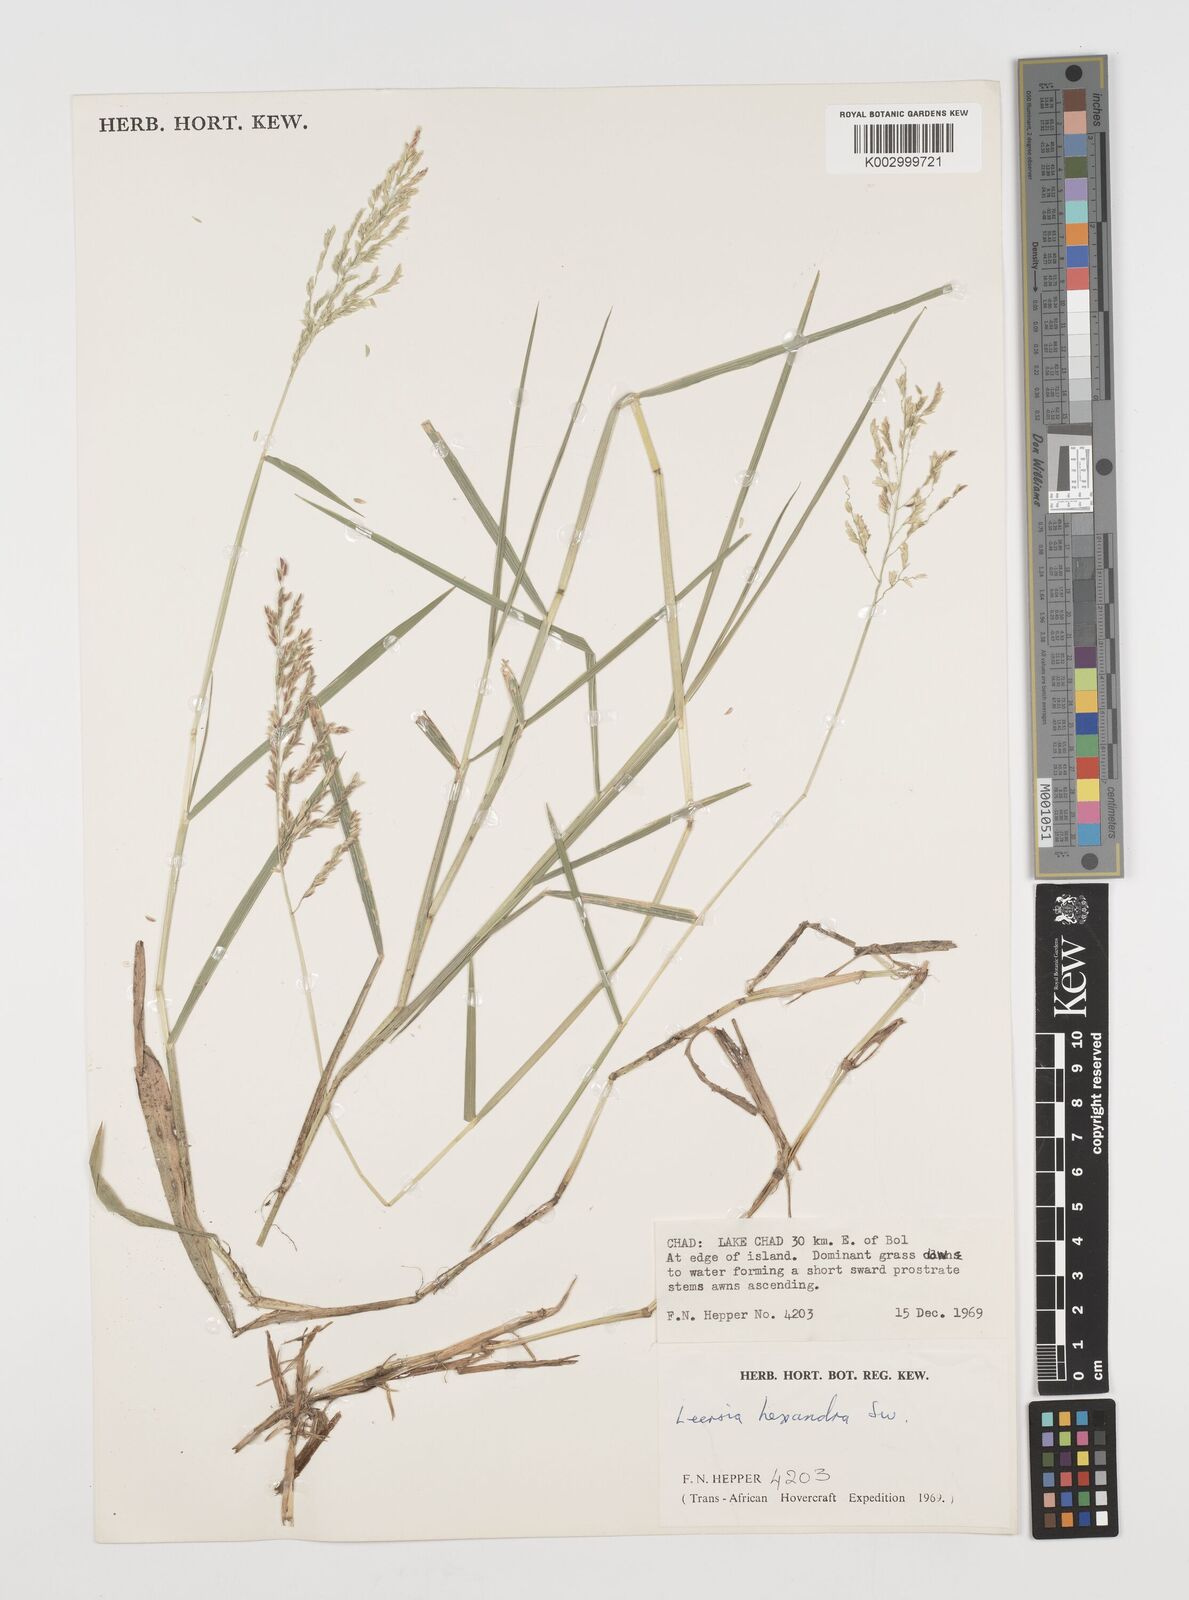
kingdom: Plantae
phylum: Tracheophyta
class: Liliopsida
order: Poales
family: Poaceae
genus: Leersia
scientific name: Leersia hexandra
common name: Southern cut grass
